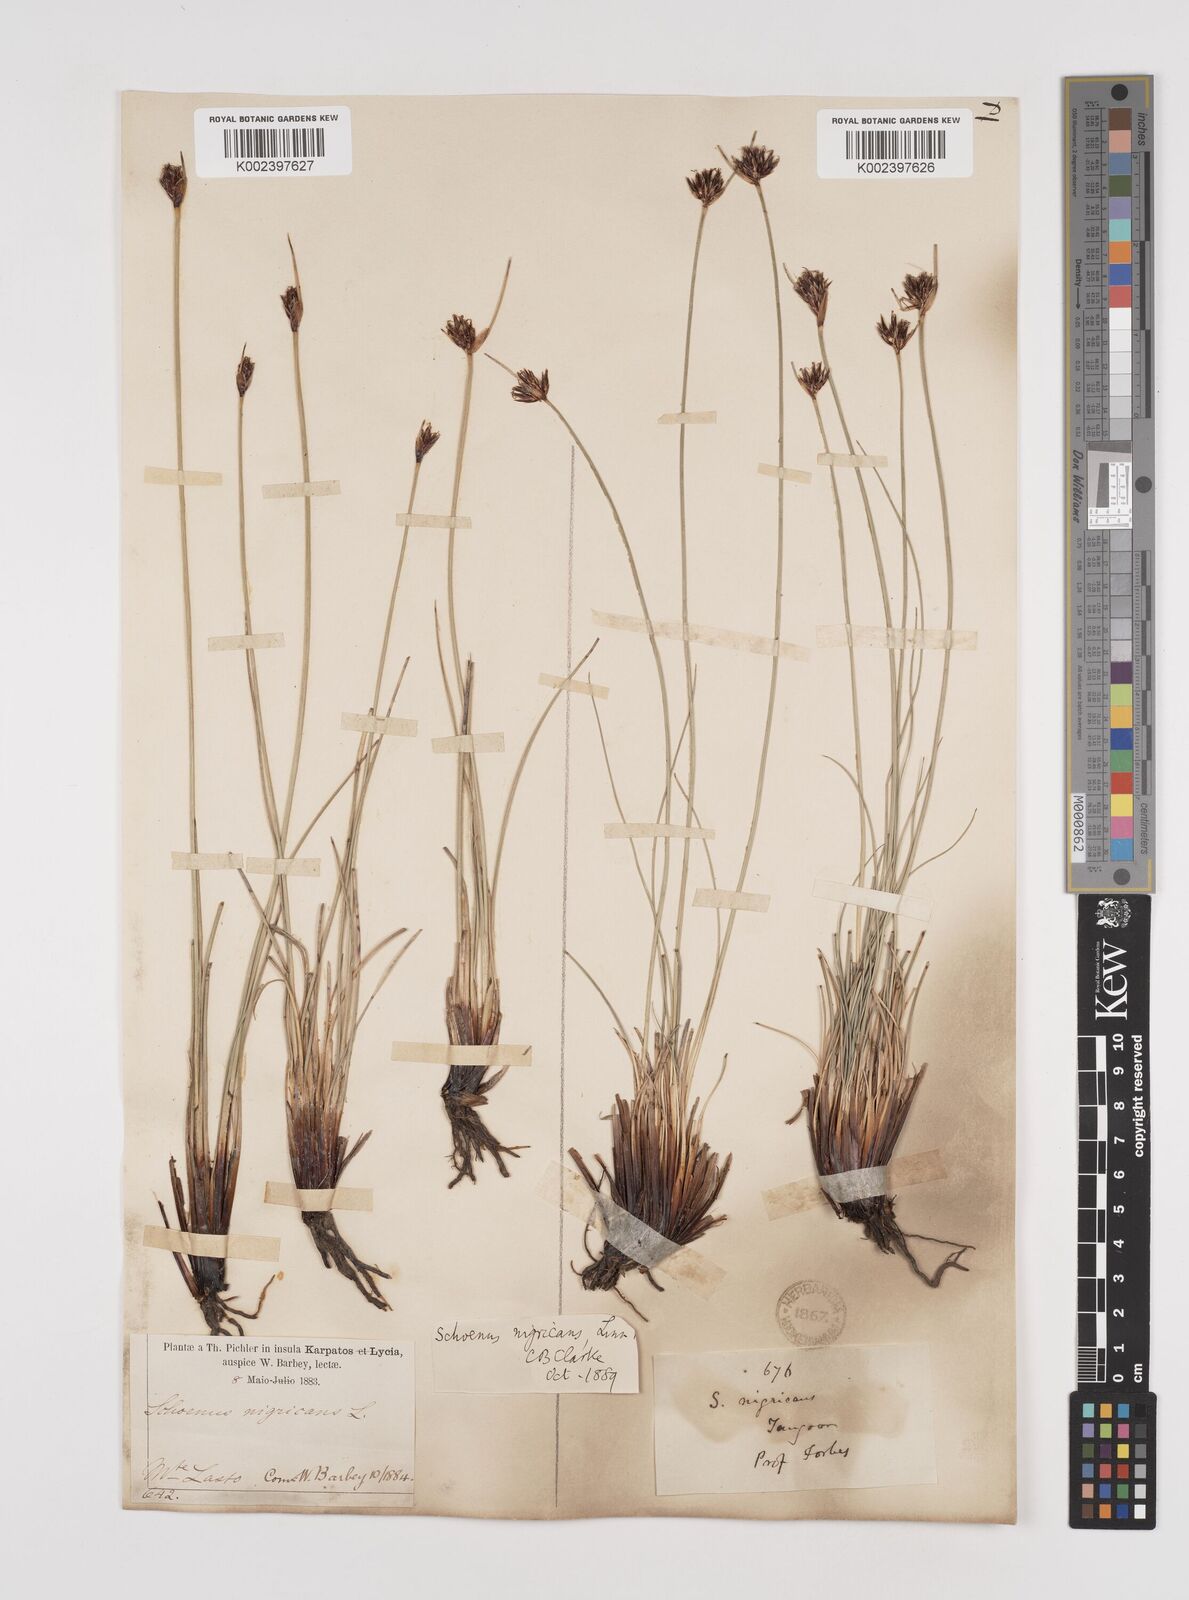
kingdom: Plantae
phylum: Tracheophyta
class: Liliopsida
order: Poales
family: Cyperaceae
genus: Schoenus
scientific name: Schoenus nigricans
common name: Black bog-rush
